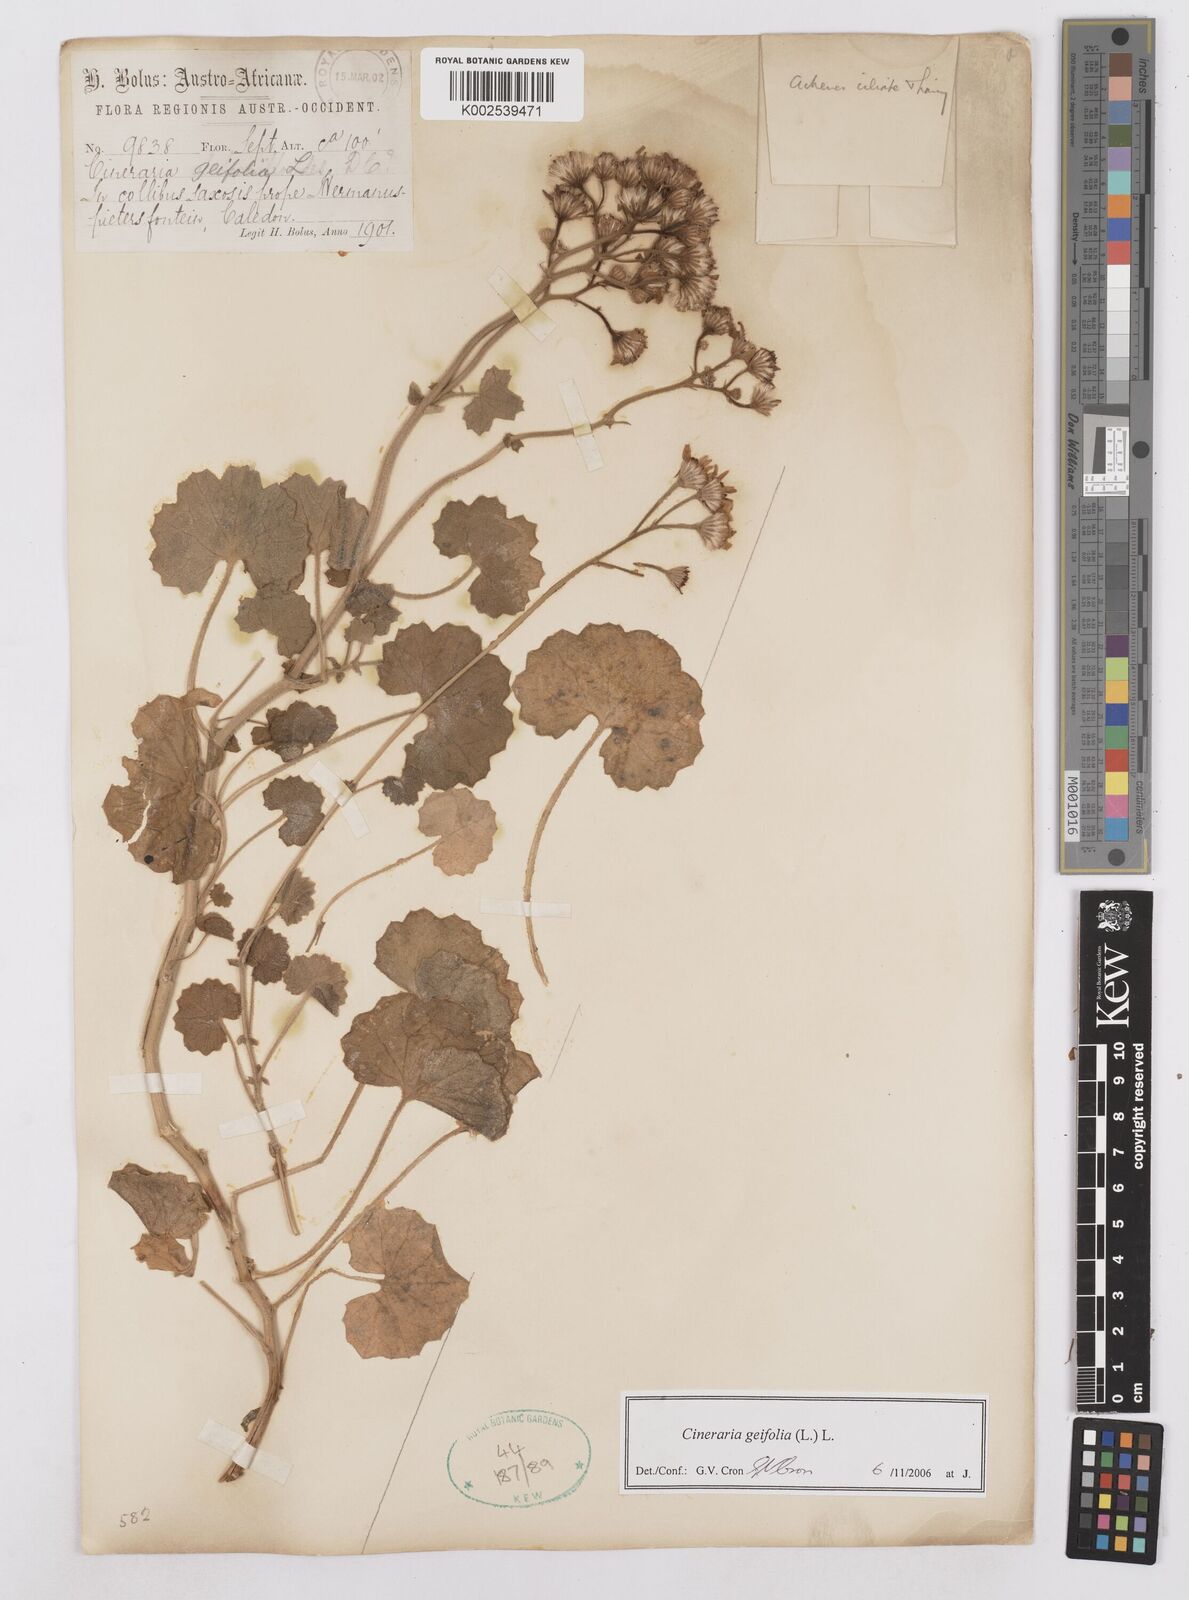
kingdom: Plantae
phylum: Tracheophyta
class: Magnoliopsida
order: Asterales
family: Asteraceae
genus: Cineraria
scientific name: Cineraria geifolia
